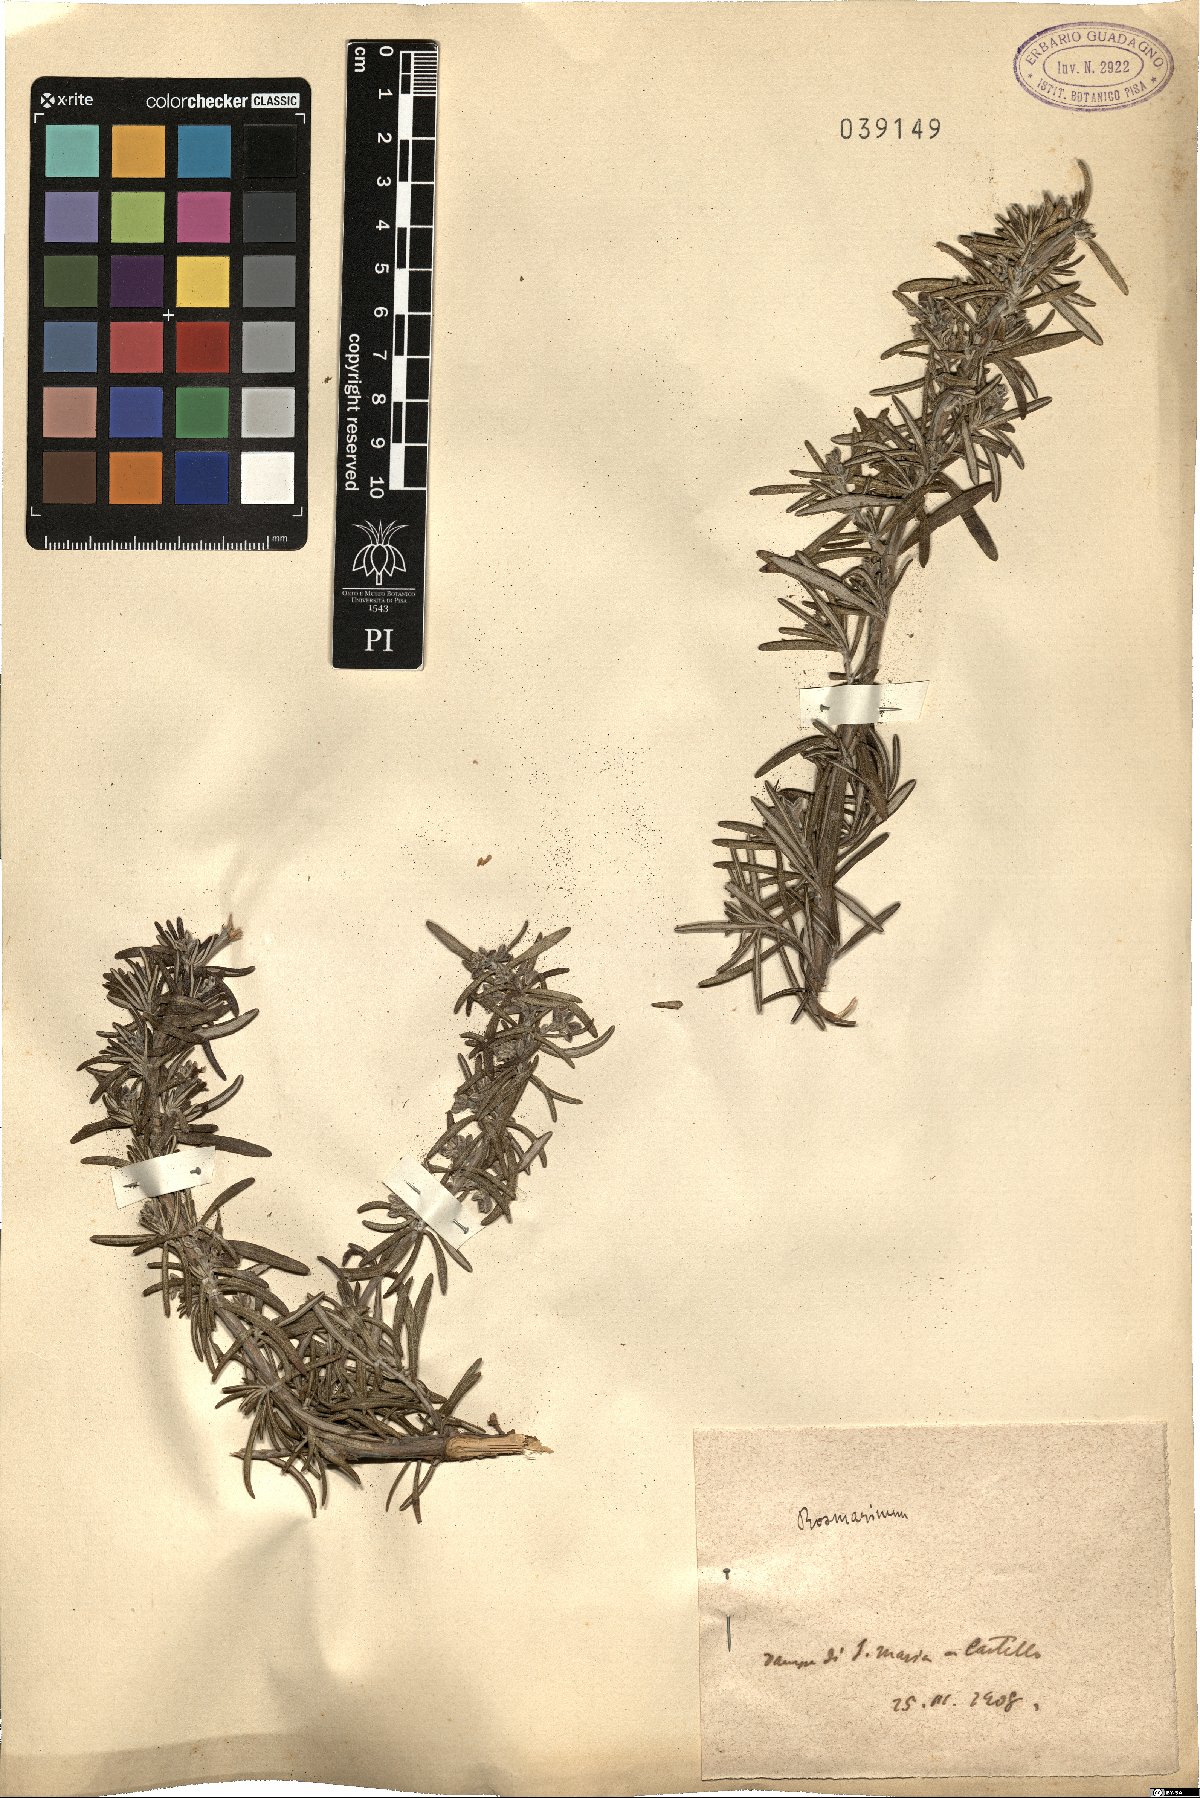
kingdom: Plantae
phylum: Tracheophyta
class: Magnoliopsida
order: Lamiales
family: Lamiaceae
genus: Salvia
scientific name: Salvia
